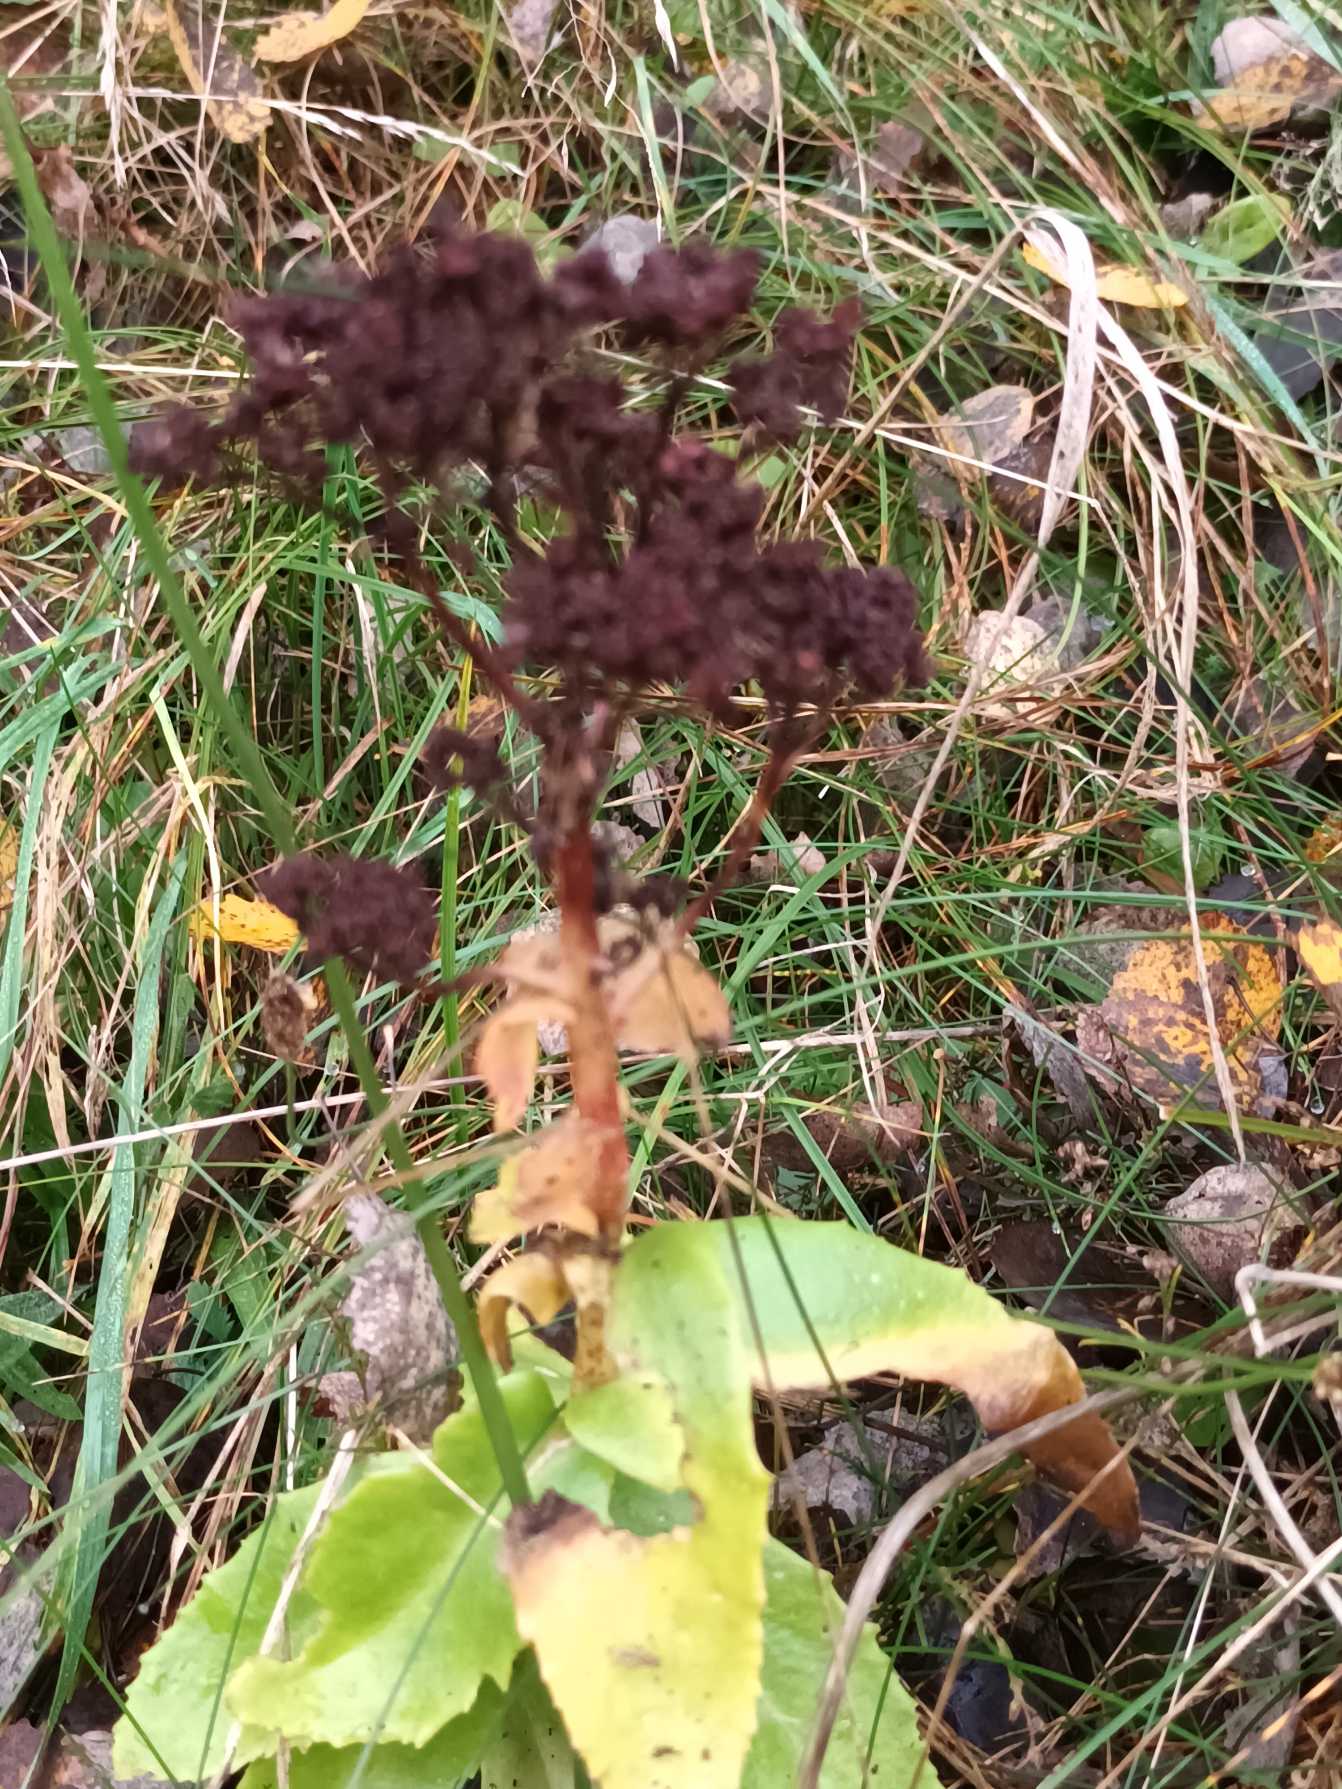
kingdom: Plantae
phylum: Tracheophyta
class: Magnoliopsida
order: Saxifragales
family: Crassulaceae
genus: Hylotelephium
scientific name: Hylotelephium maximum
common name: Almindelig sankthansurt
